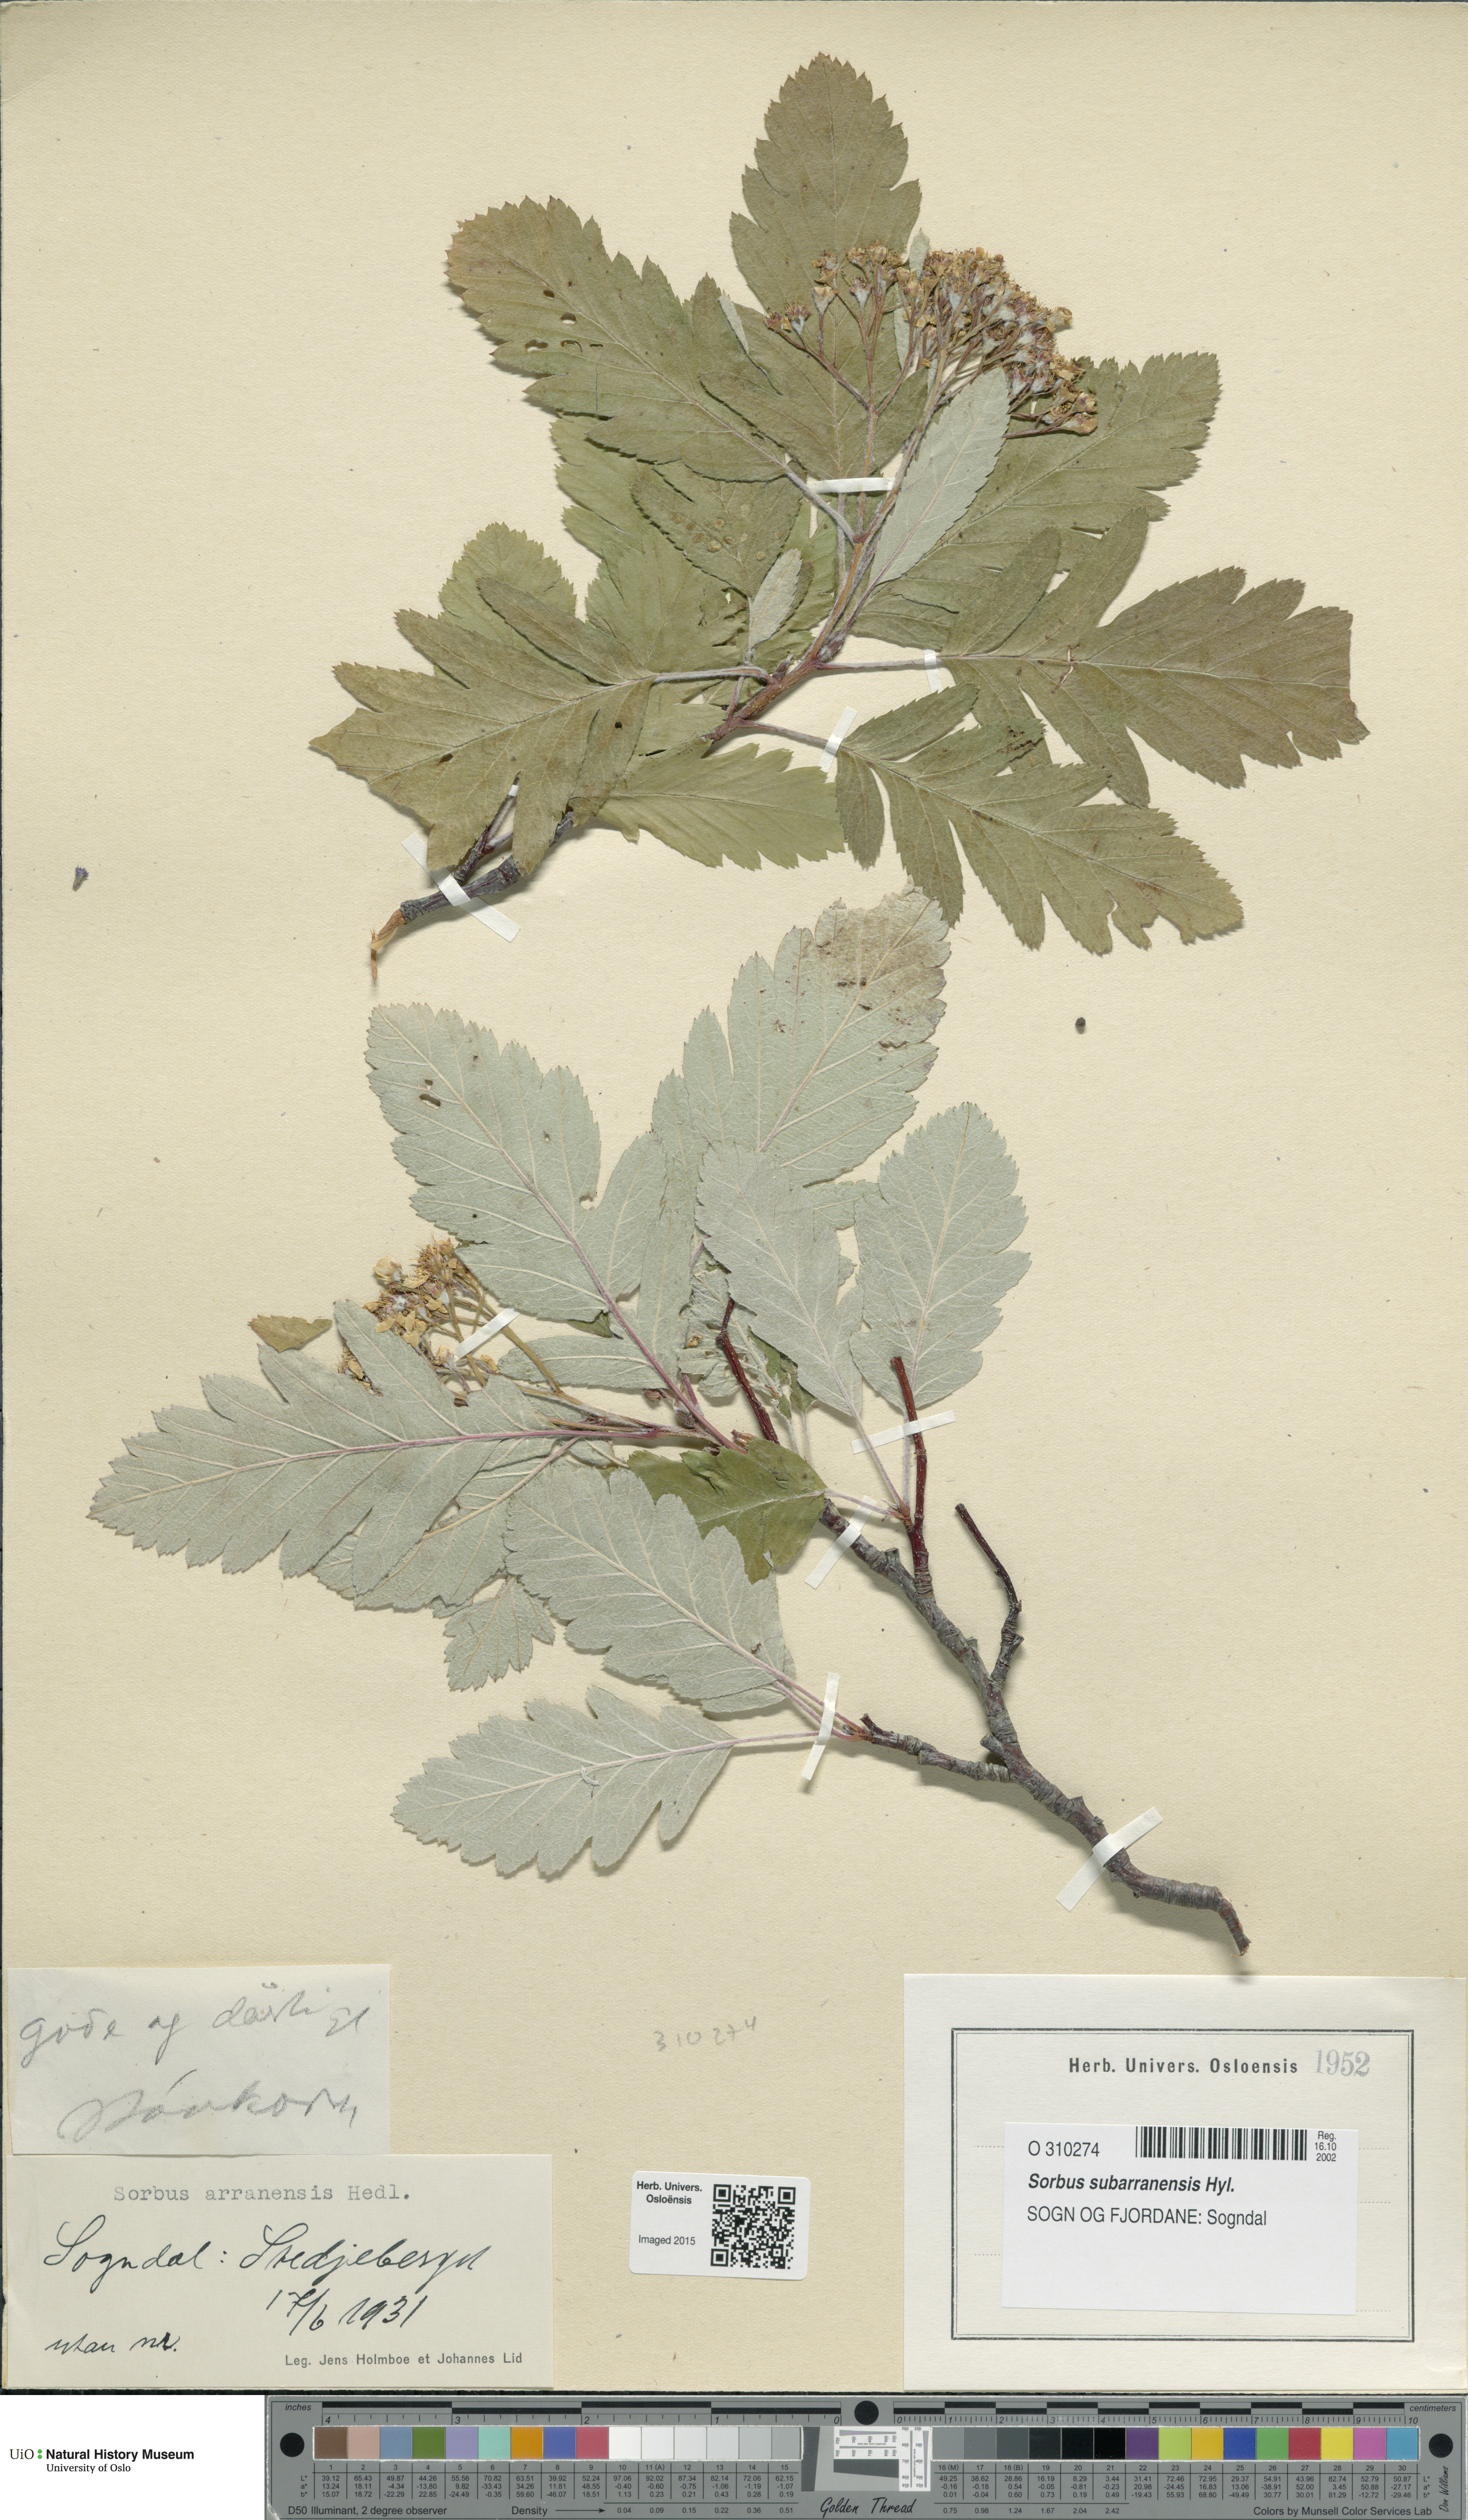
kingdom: Plantae
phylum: Tracheophyta
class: Magnoliopsida
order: Rosales
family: Rosaceae
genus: Hedlundia
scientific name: Hedlundia arranensis
